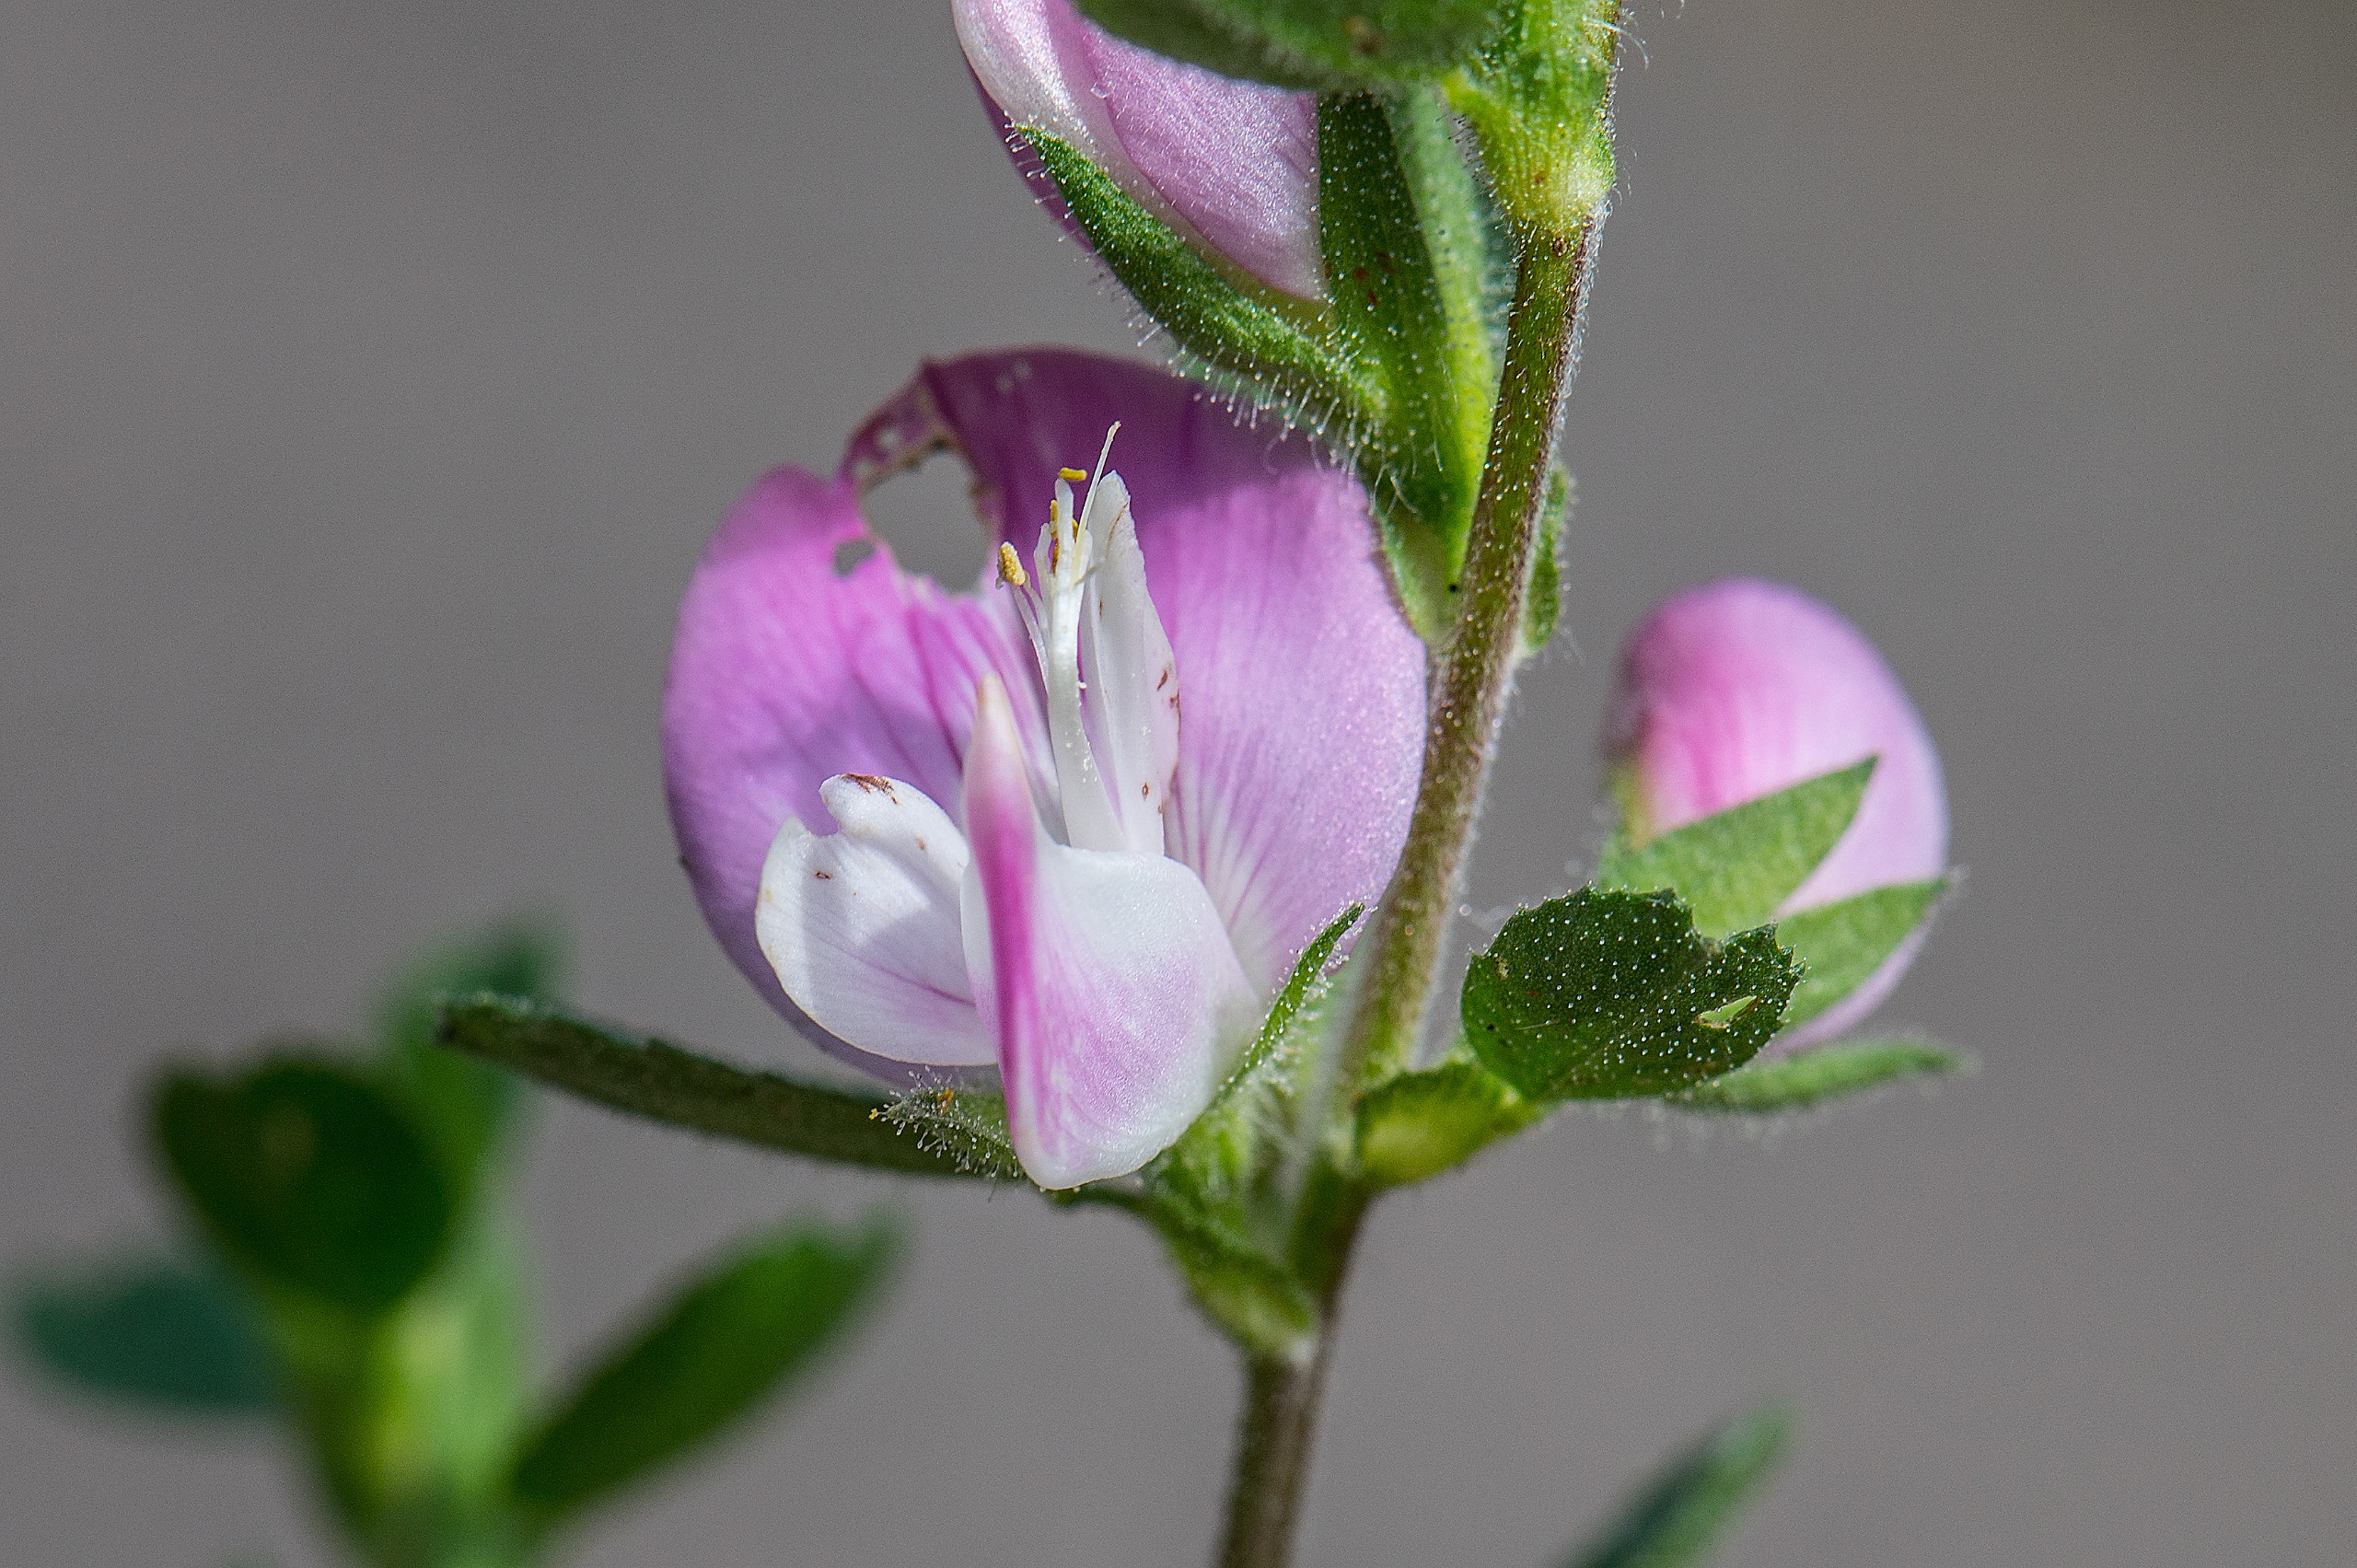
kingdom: Plantae
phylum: Tracheophyta
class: Magnoliopsida
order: Fabales
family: Fabaceae
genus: Ononis
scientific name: Ononis spinosa
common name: Mark-krageklo
